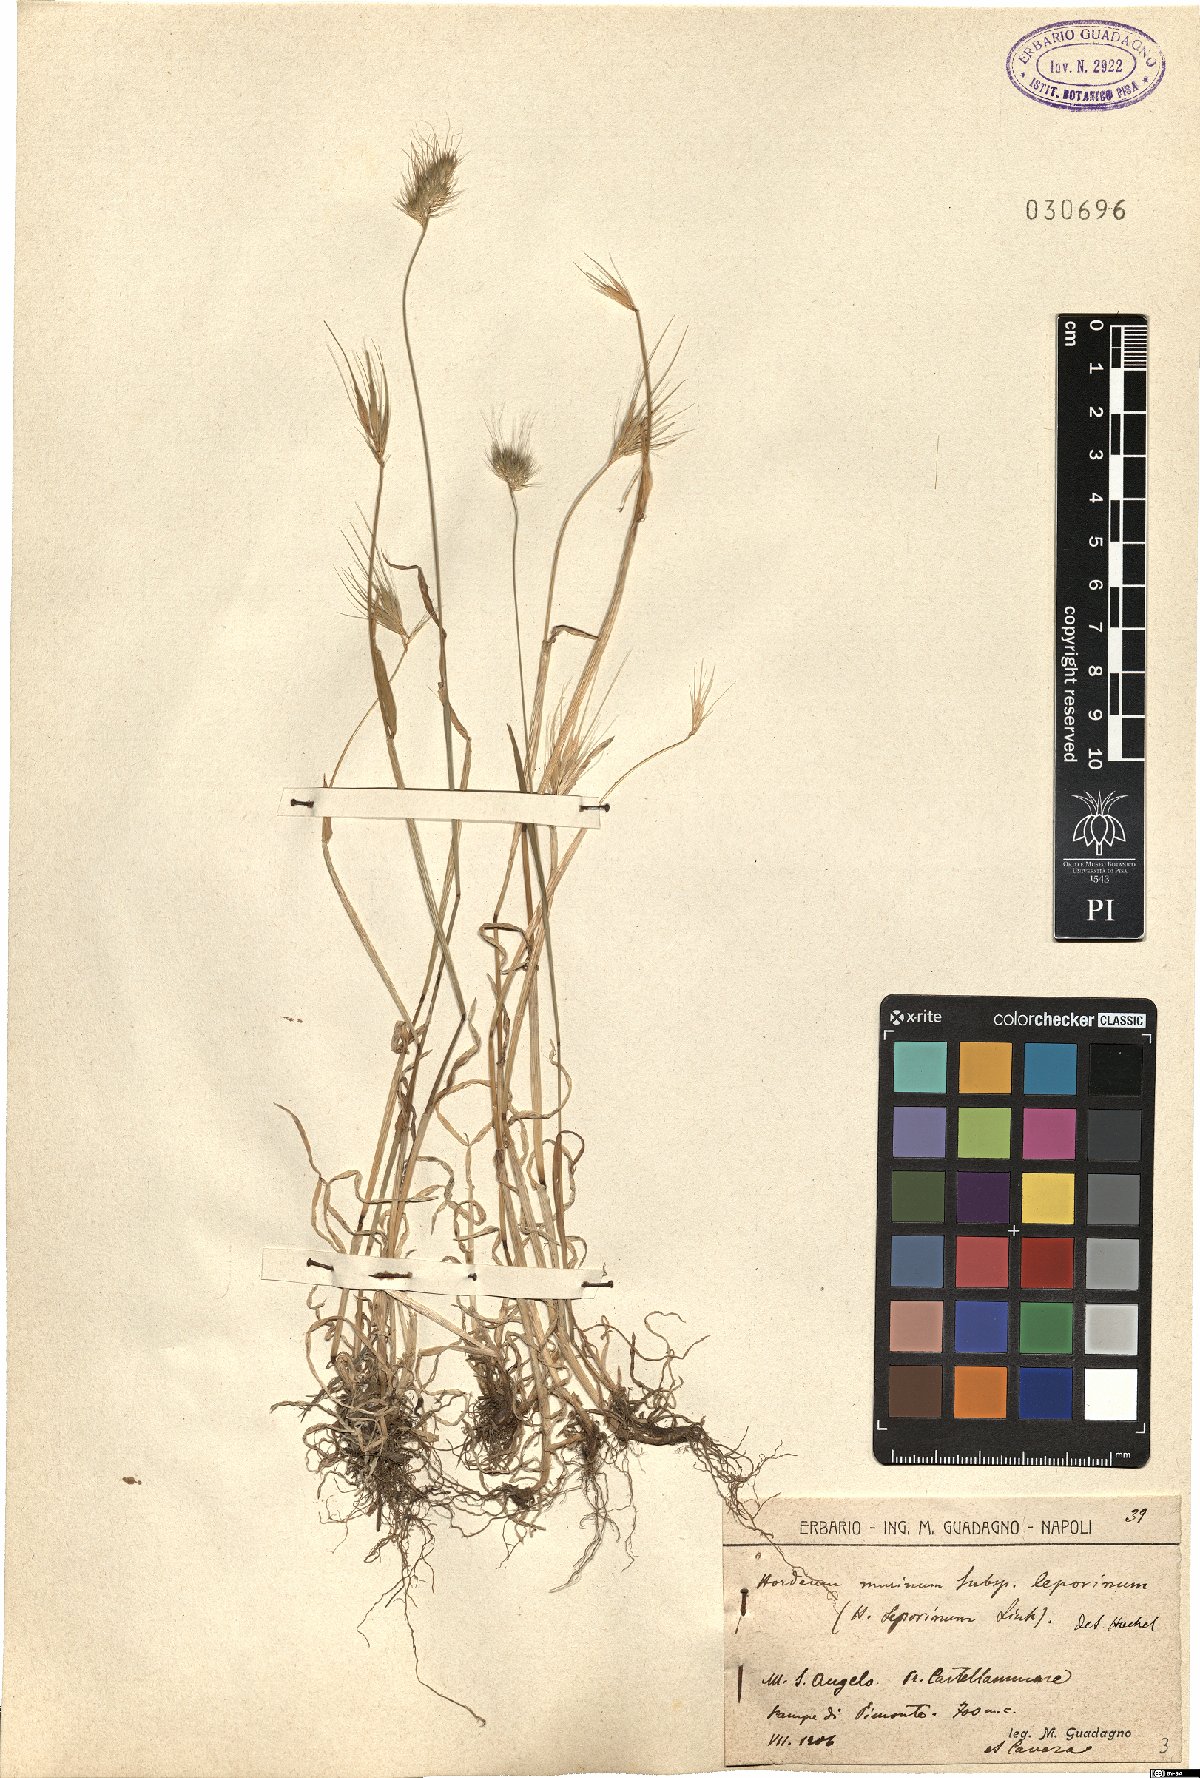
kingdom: Plantae
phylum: Tracheophyta
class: Liliopsida
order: Poales
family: Poaceae
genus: Hordeum
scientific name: Hordeum murinum
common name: Wall barley
